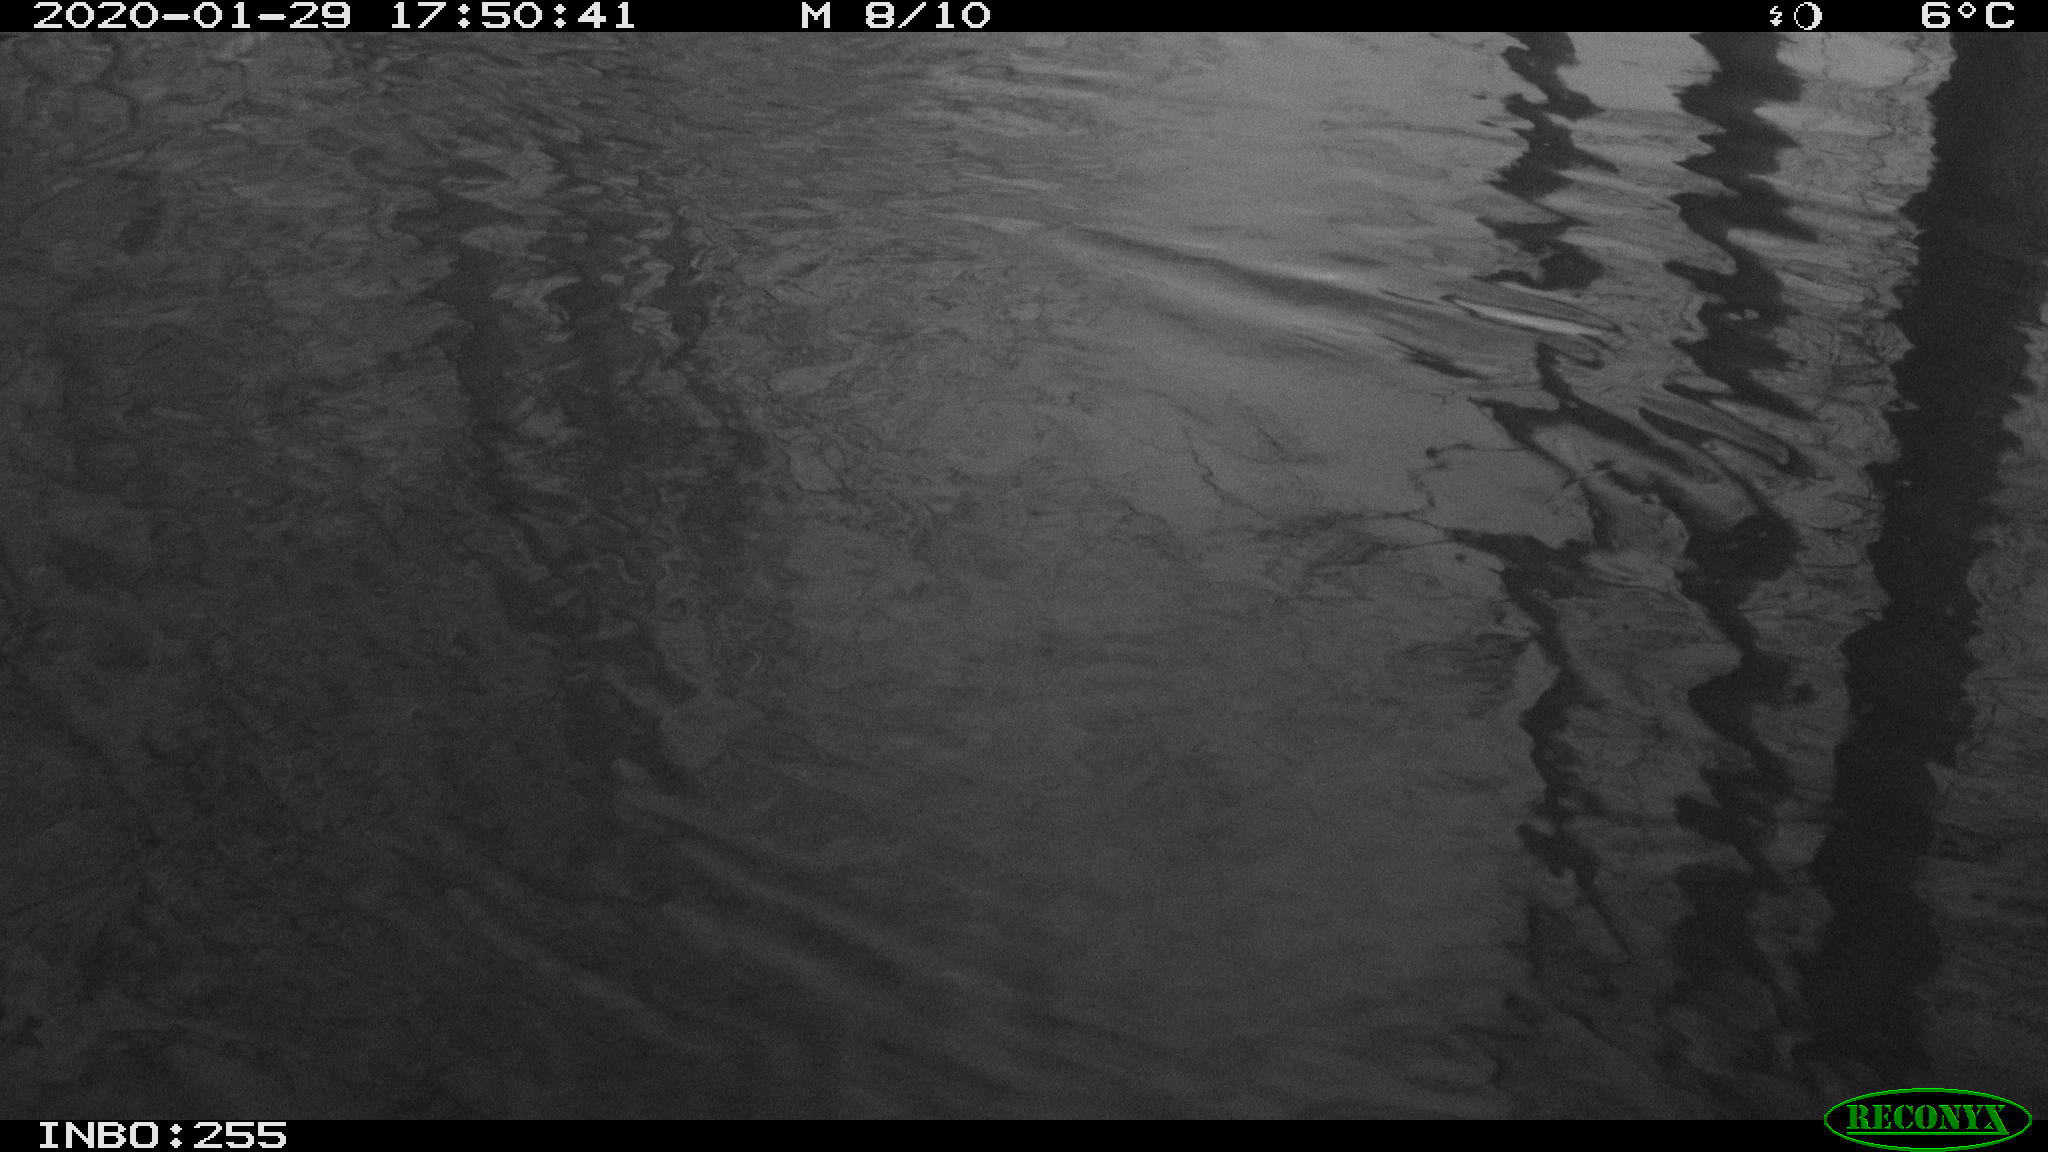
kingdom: Animalia
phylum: Chordata
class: Aves
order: Anseriformes
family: Anatidae
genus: Anas
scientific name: Anas platyrhynchos
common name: Mallard
